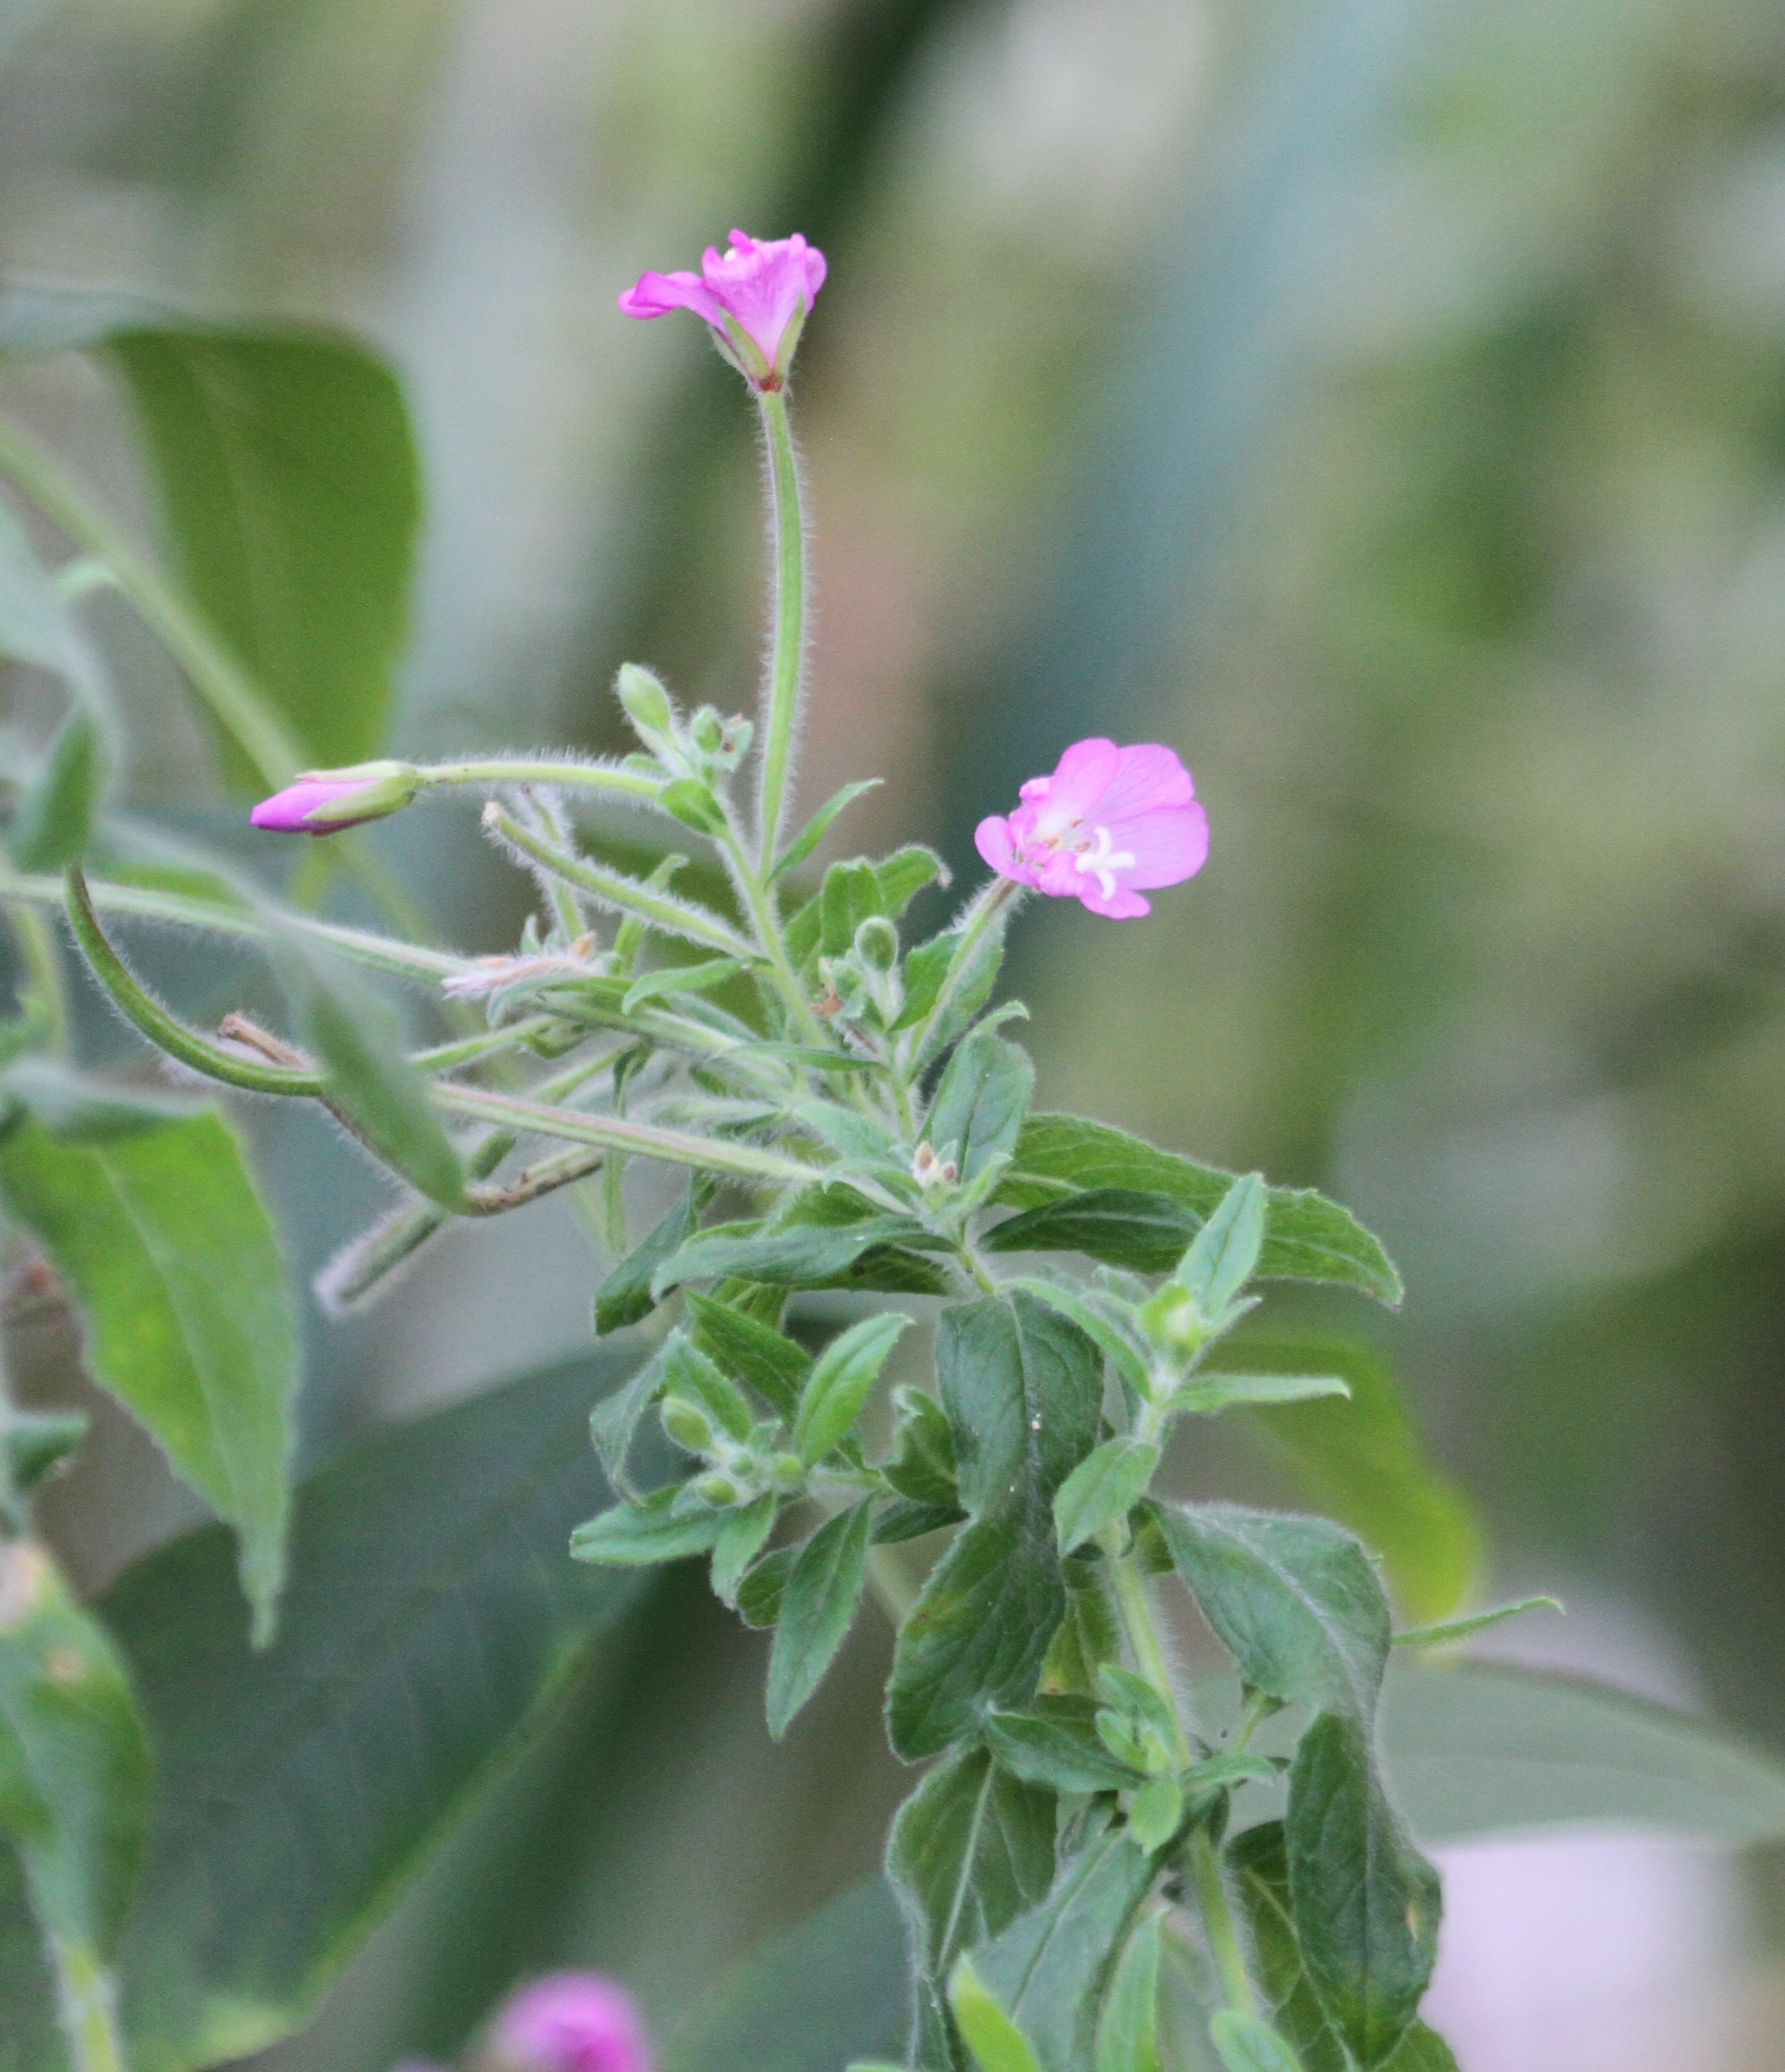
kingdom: Plantae
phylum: Tracheophyta
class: Magnoliopsida
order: Myrtales
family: Onagraceae
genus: Epilobium
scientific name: Epilobium hirsutum
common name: Lådden dueurt
